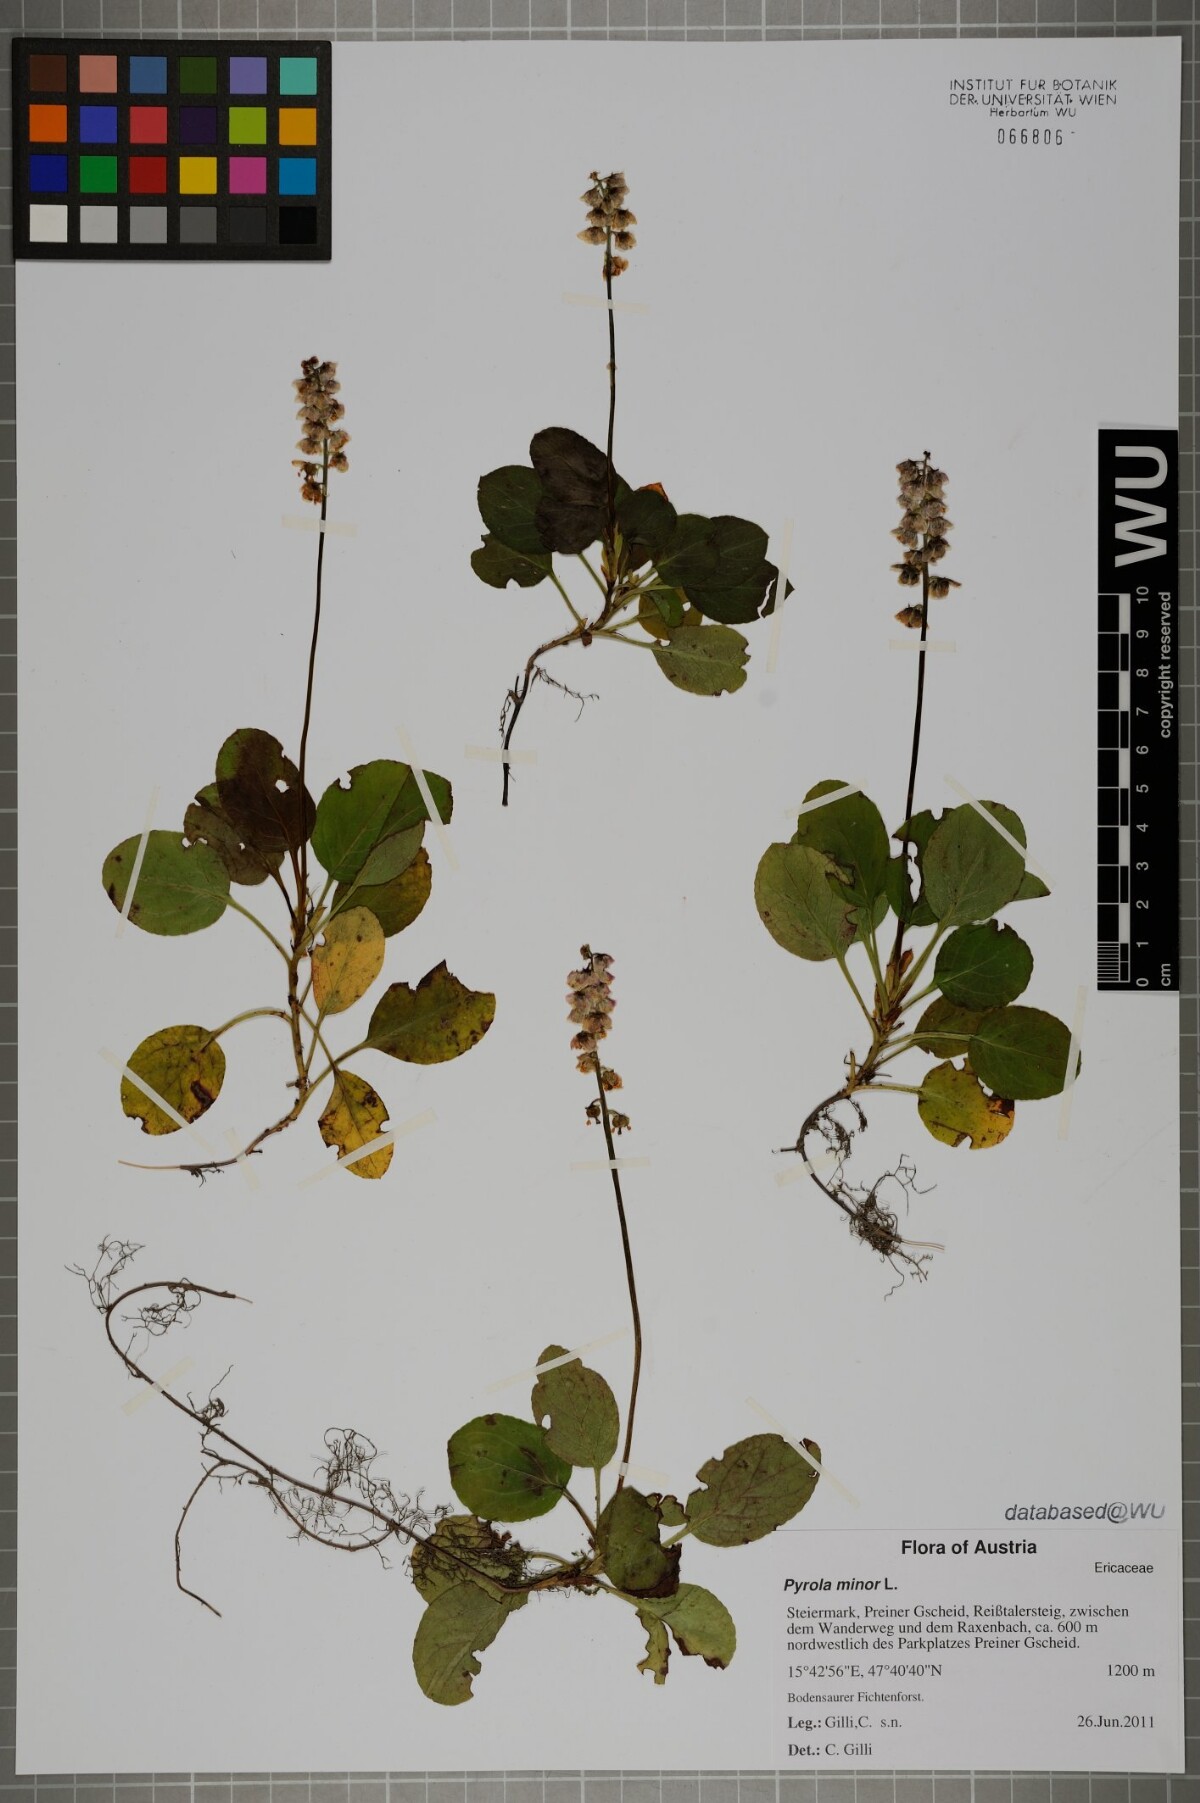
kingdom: Plantae
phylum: Tracheophyta
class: Magnoliopsida
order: Ericales
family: Ericaceae
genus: Pyrola
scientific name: Pyrola minor
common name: Common wintergreen
